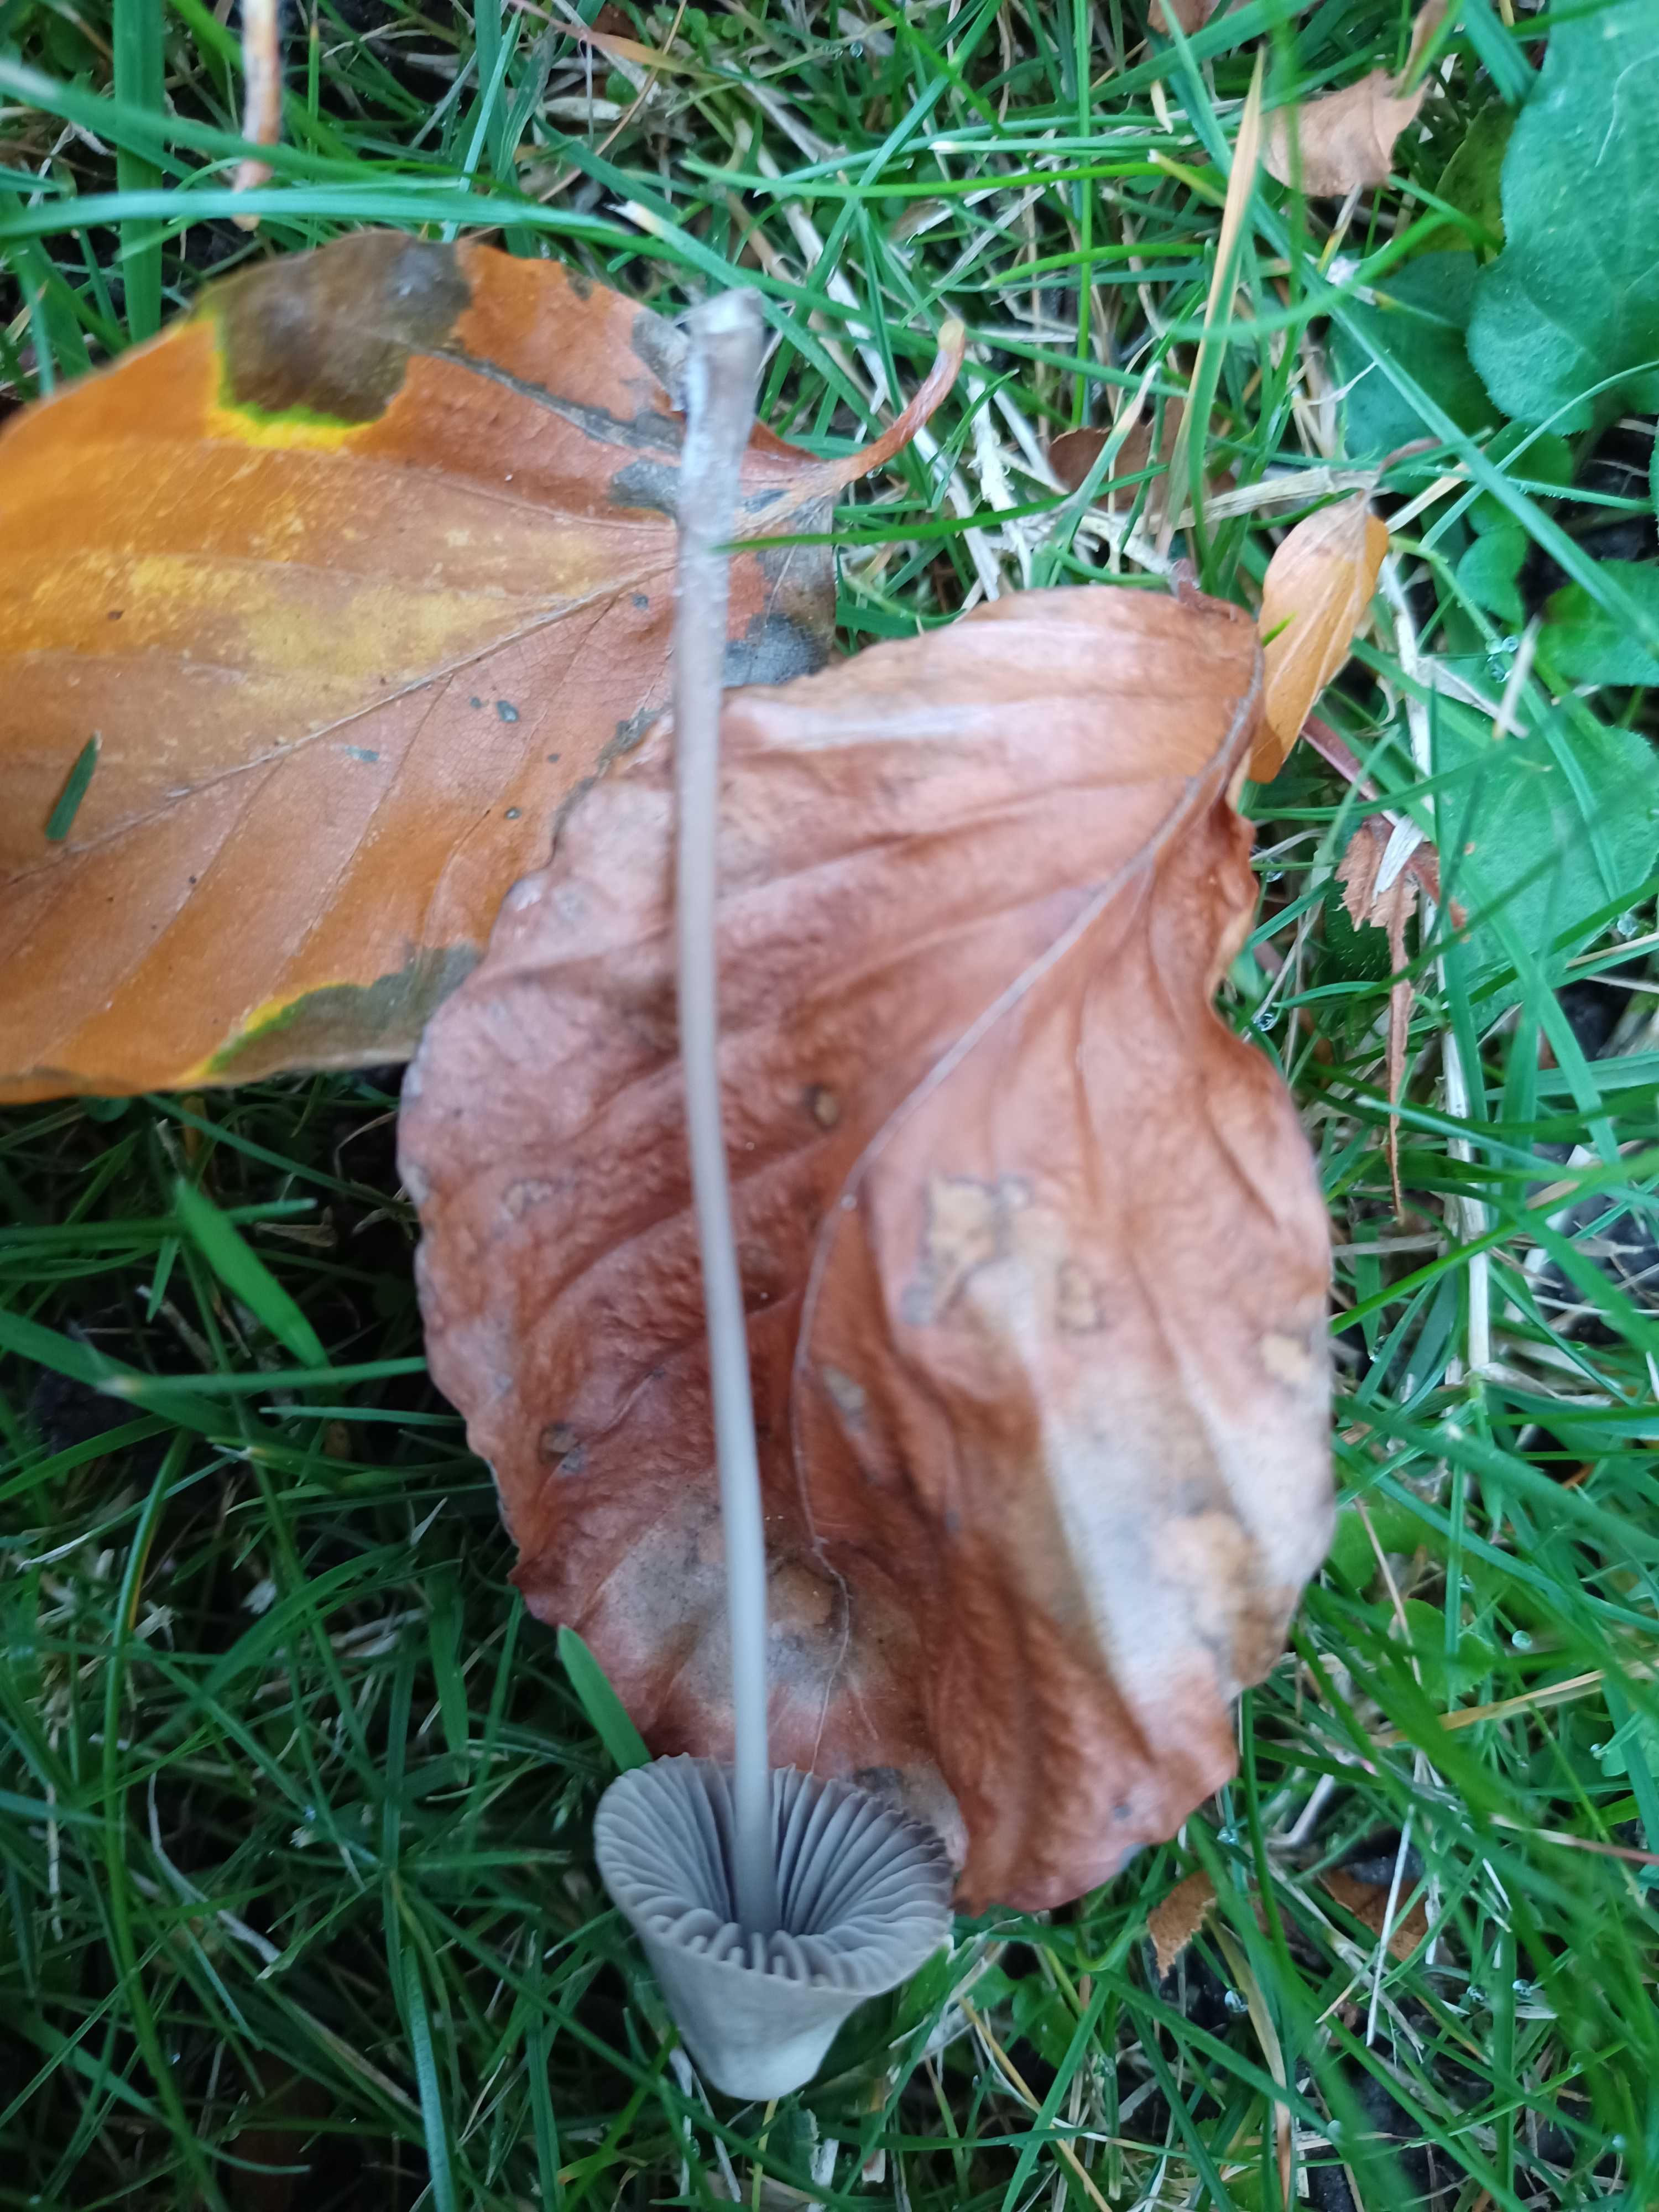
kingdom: Fungi
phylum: Basidiomycota
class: Agaricomycetes
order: Agaricales
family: Mycenaceae
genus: Mycena
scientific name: Mycena
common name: huesvamp
